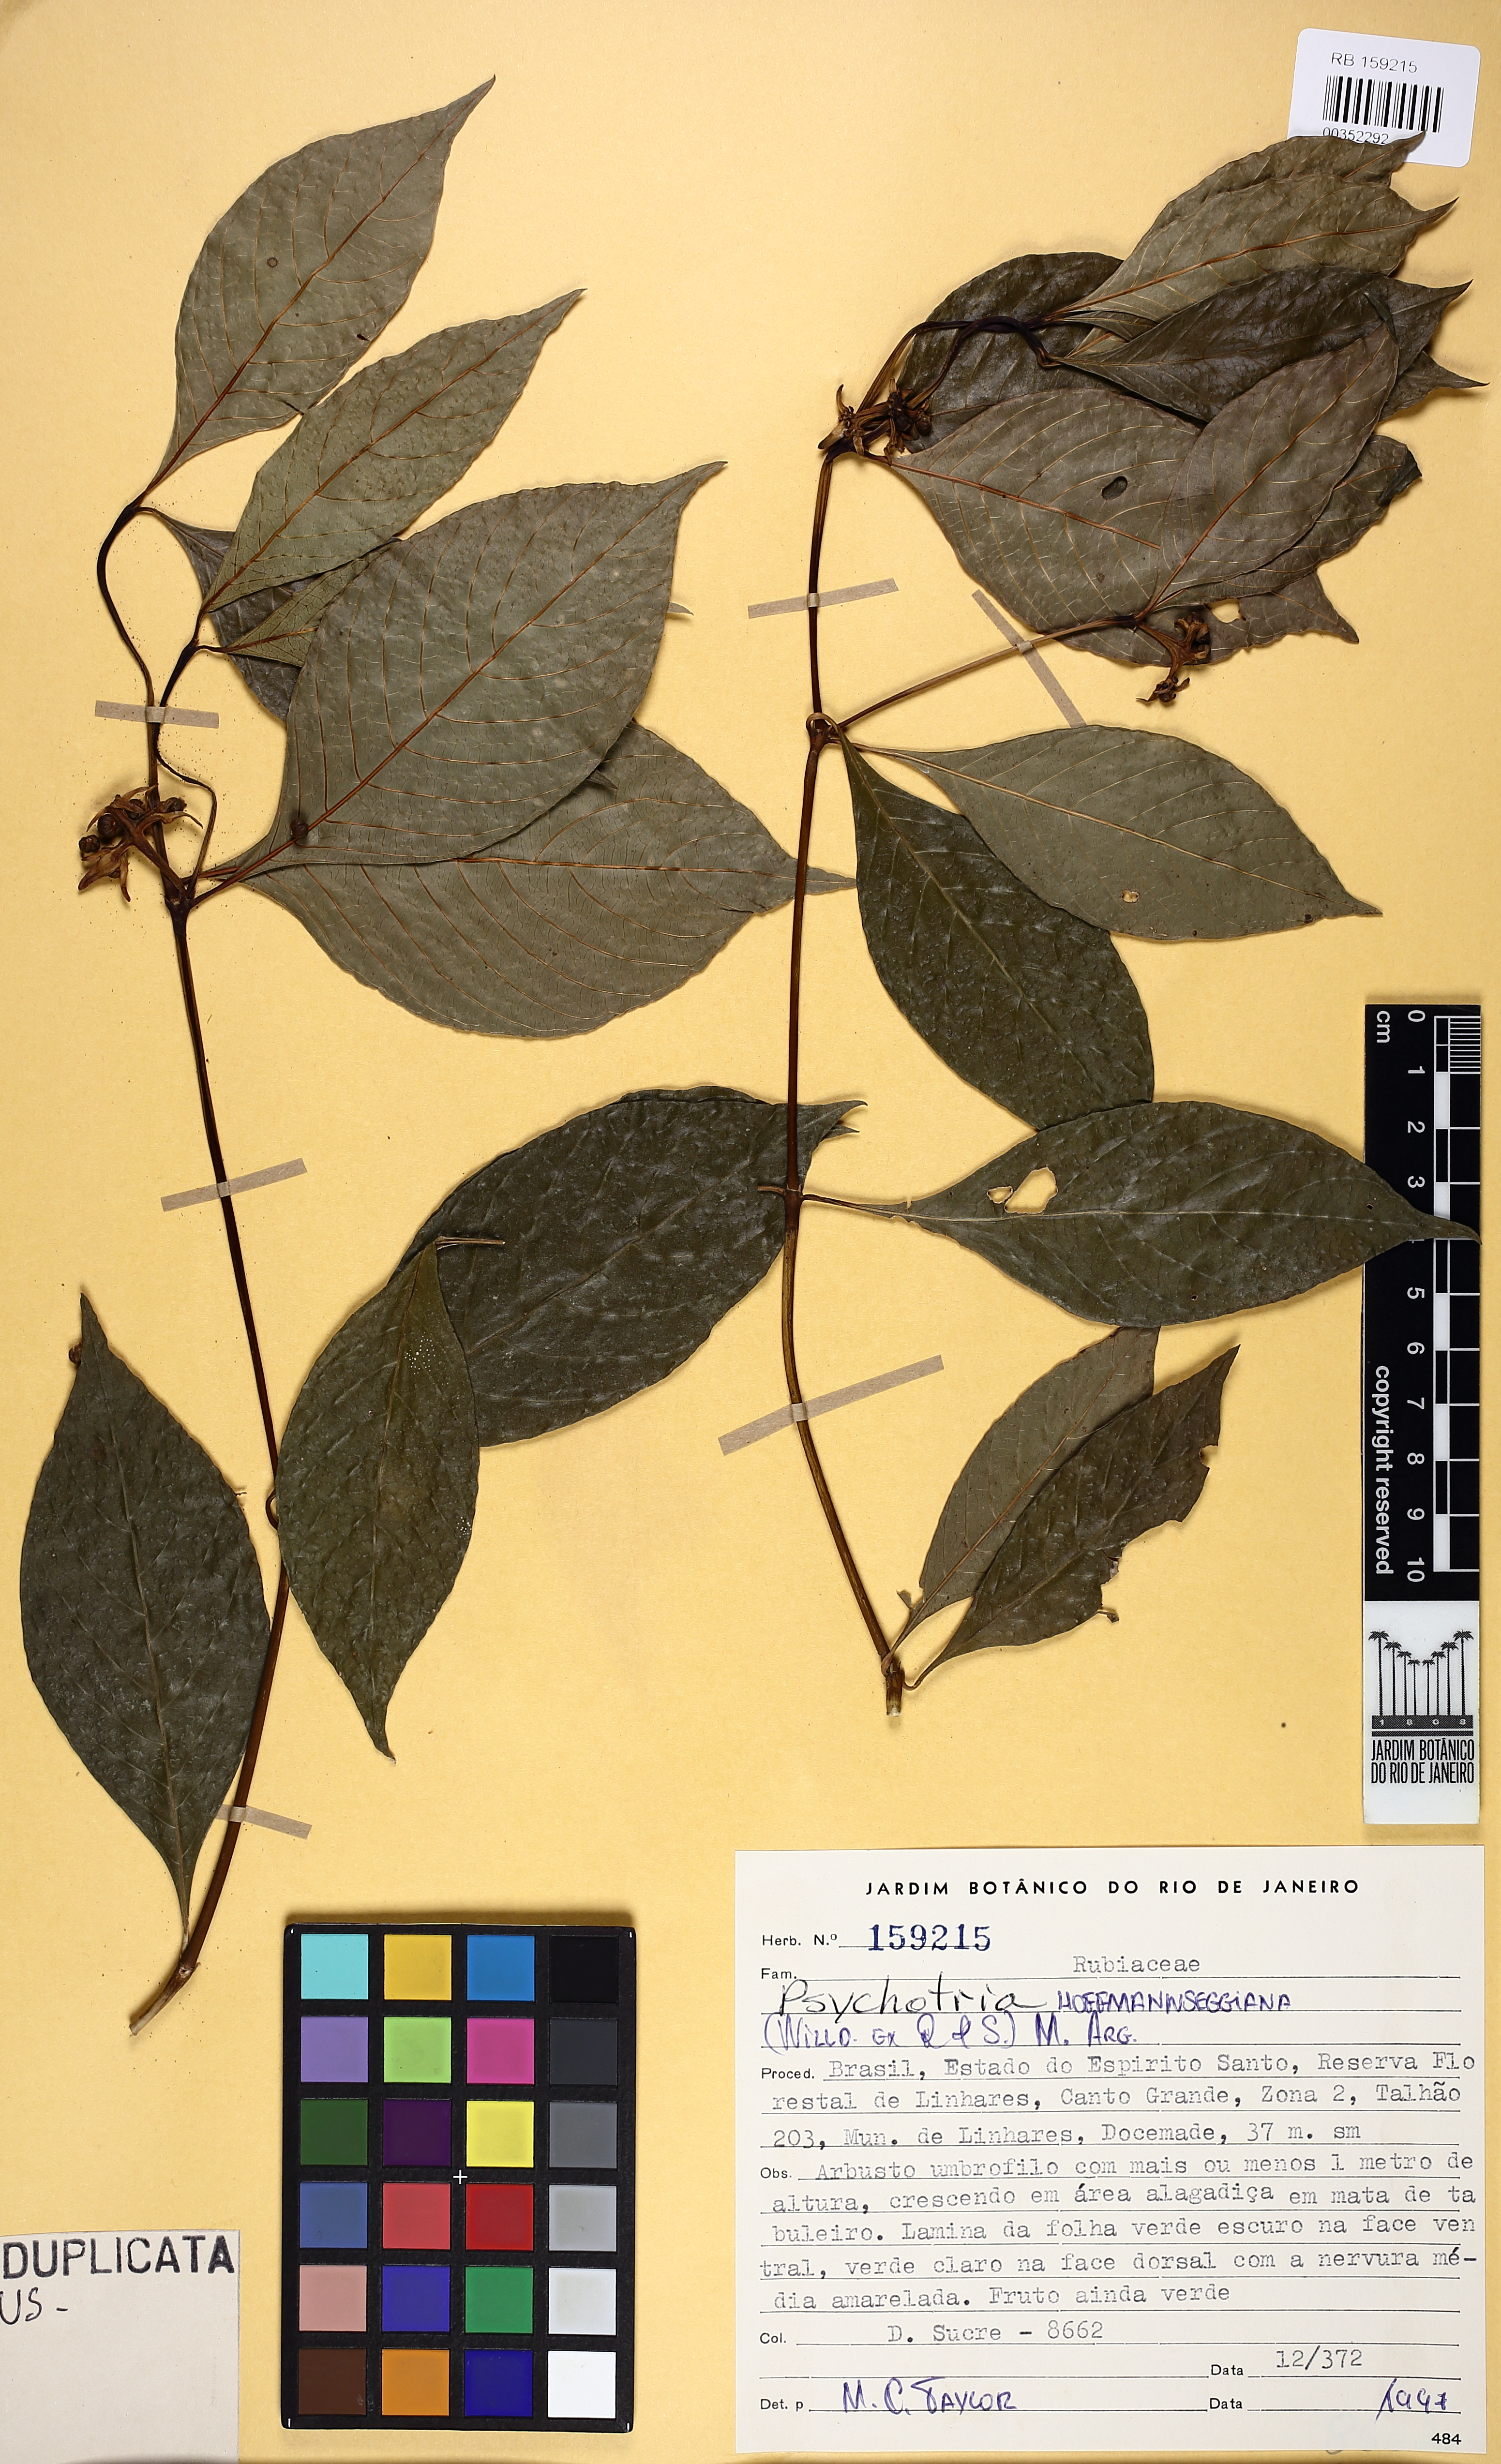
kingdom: Plantae
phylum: Tracheophyta
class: Magnoliopsida
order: Gentianales
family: Rubiaceae
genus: Palicourea
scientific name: Palicourea hoffmannseggiana
